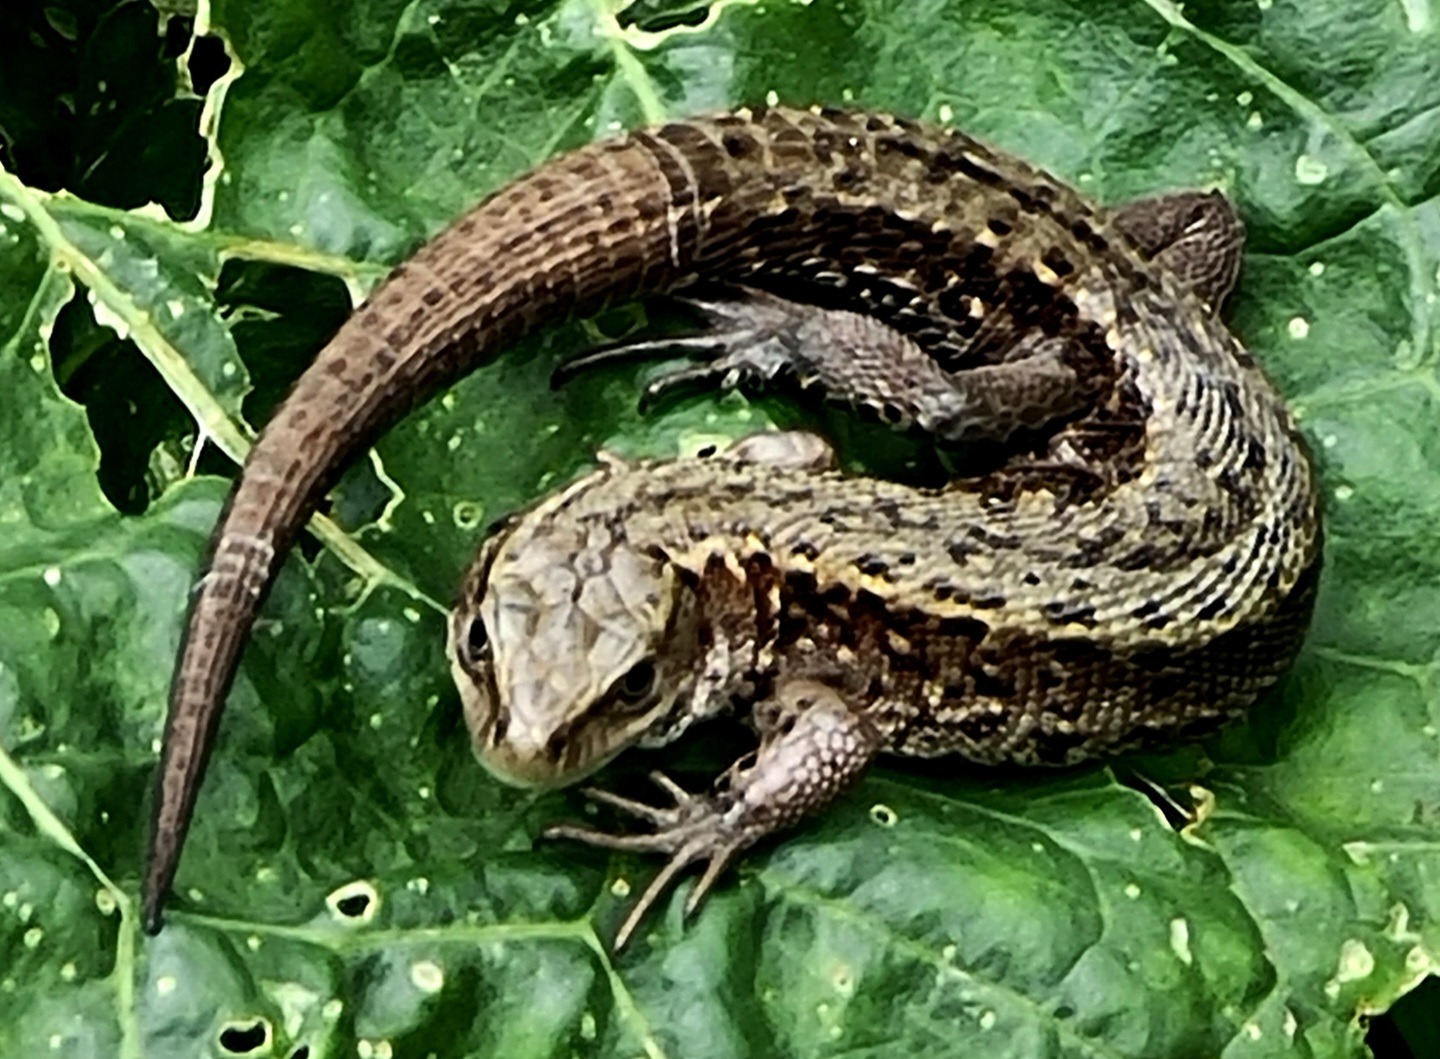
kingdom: Animalia
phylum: Chordata
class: Squamata
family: Lacertidae
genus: Zootoca
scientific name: Zootoca vivipara
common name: Skovfirben
